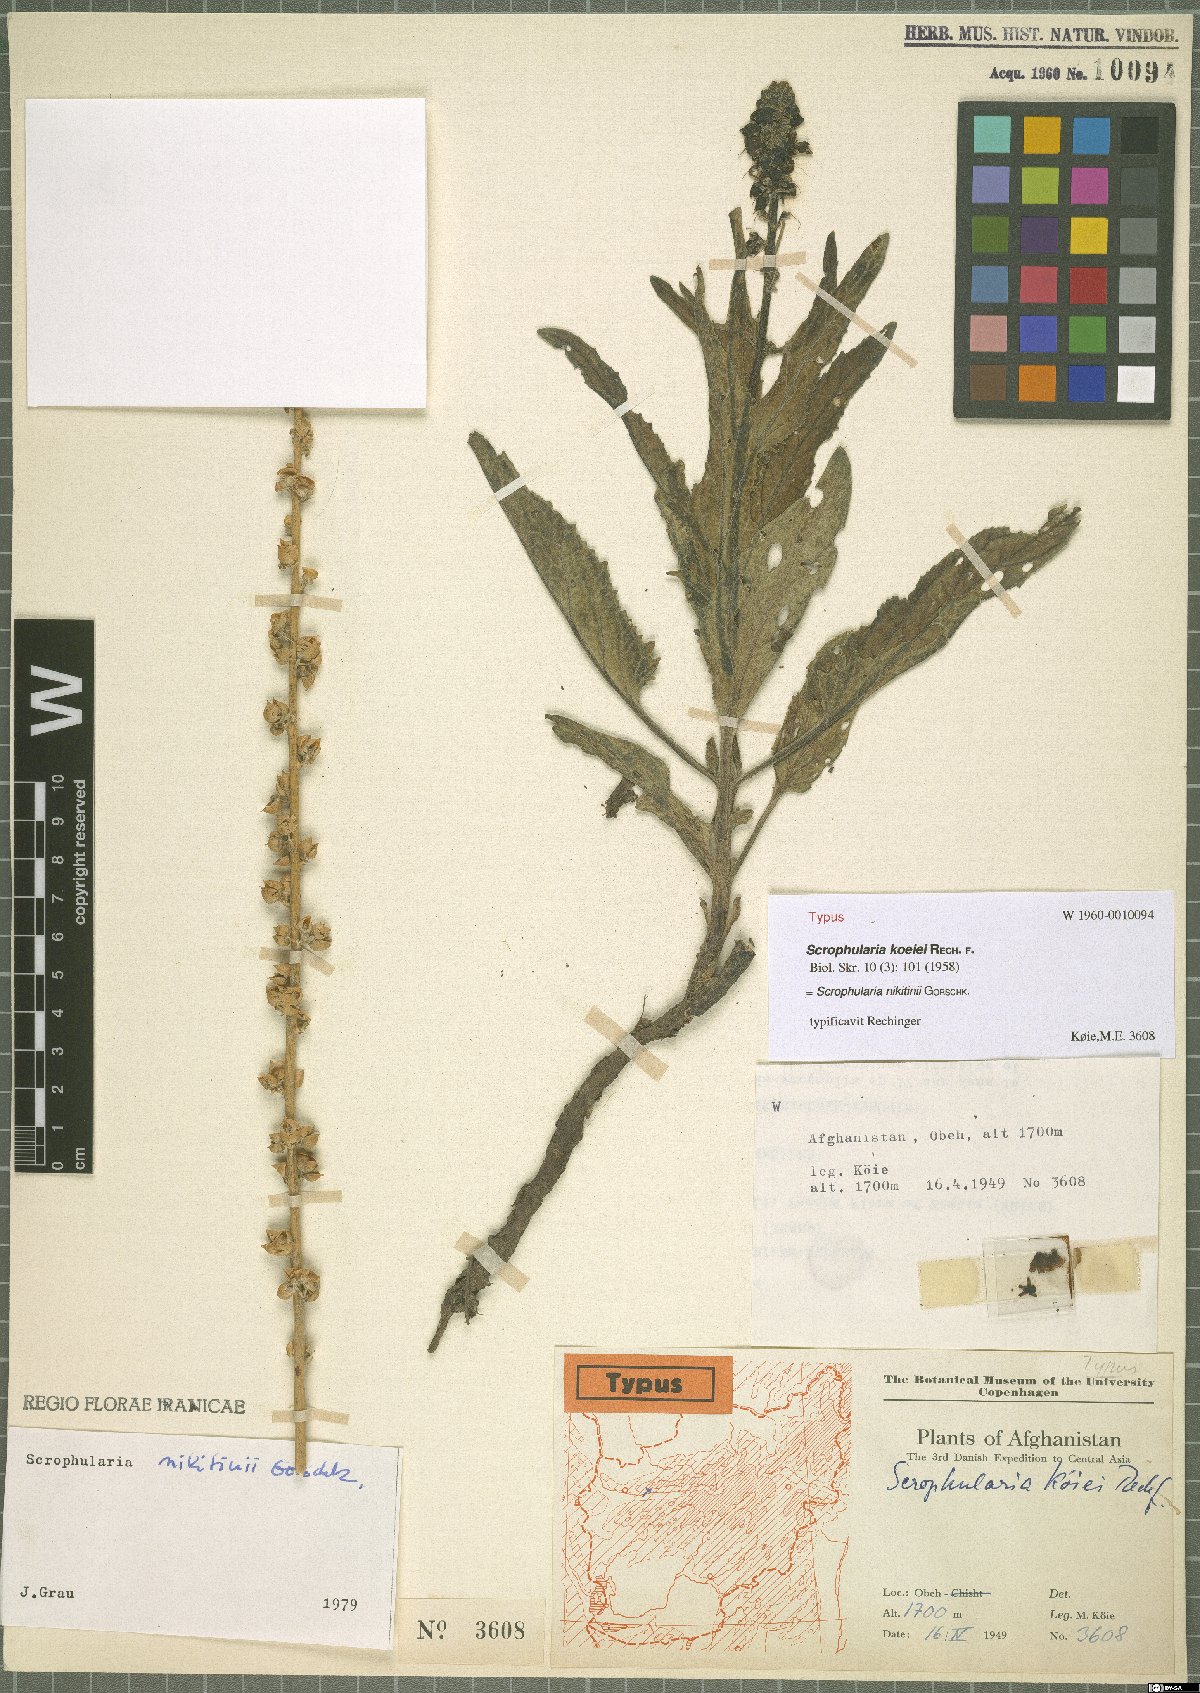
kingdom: Plantae
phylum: Tracheophyta
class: Magnoliopsida
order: Lamiales
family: Scrophulariaceae
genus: Scrophularia
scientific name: Scrophularia nikitinii
